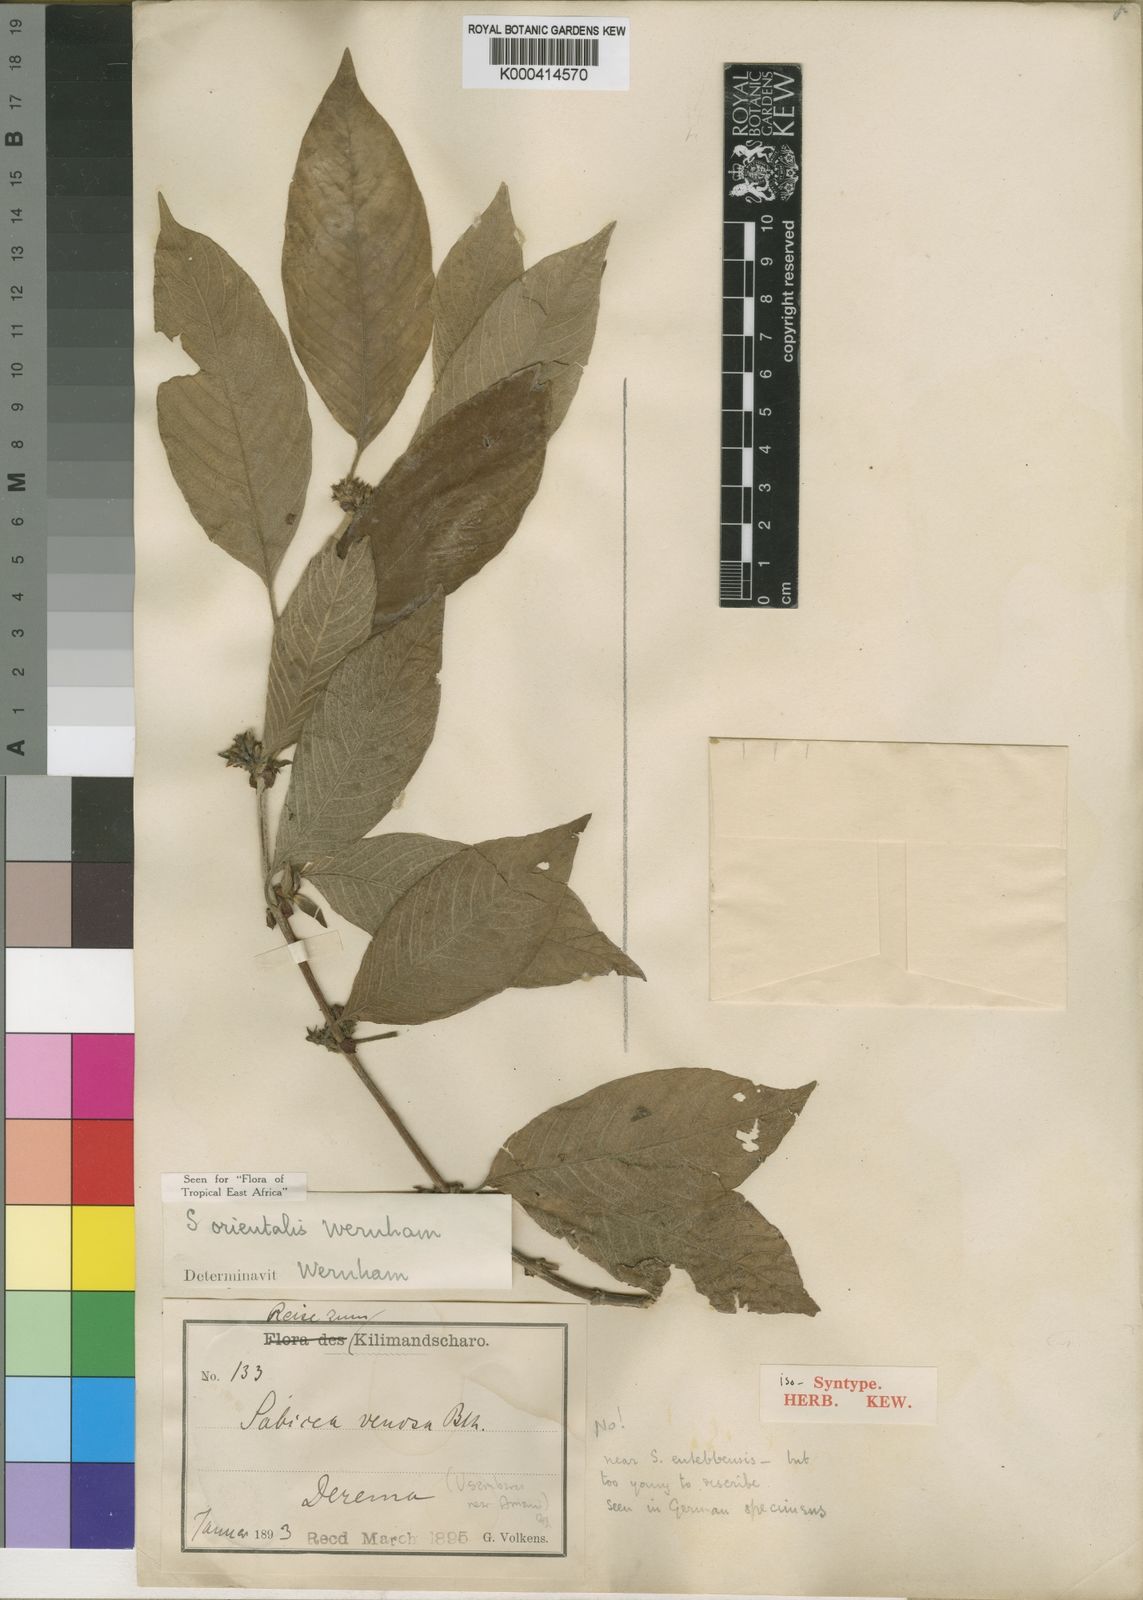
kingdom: Plantae
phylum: Tracheophyta
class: Magnoliopsida
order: Gentianales
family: Rubiaceae
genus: Sabicea
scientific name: Sabicea orientalis
